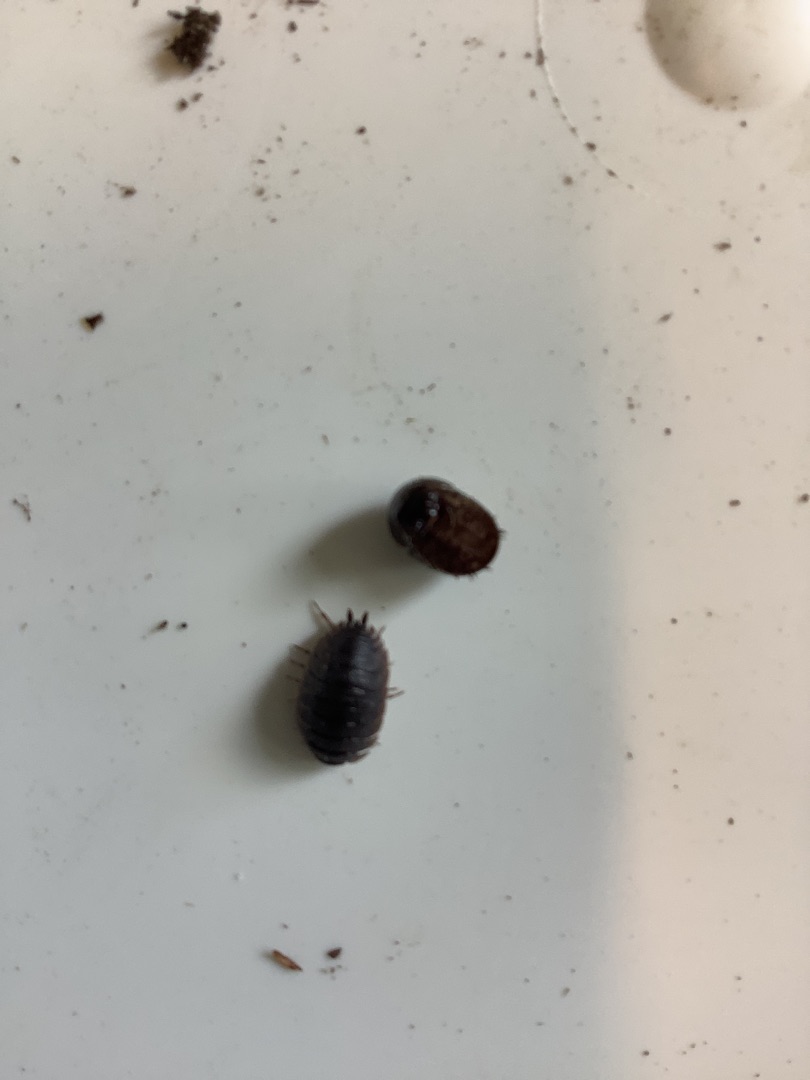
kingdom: Animalia
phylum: Arthropoda
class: Malacostraca
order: Isopoda
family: Oniscidae
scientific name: Oniscidae
